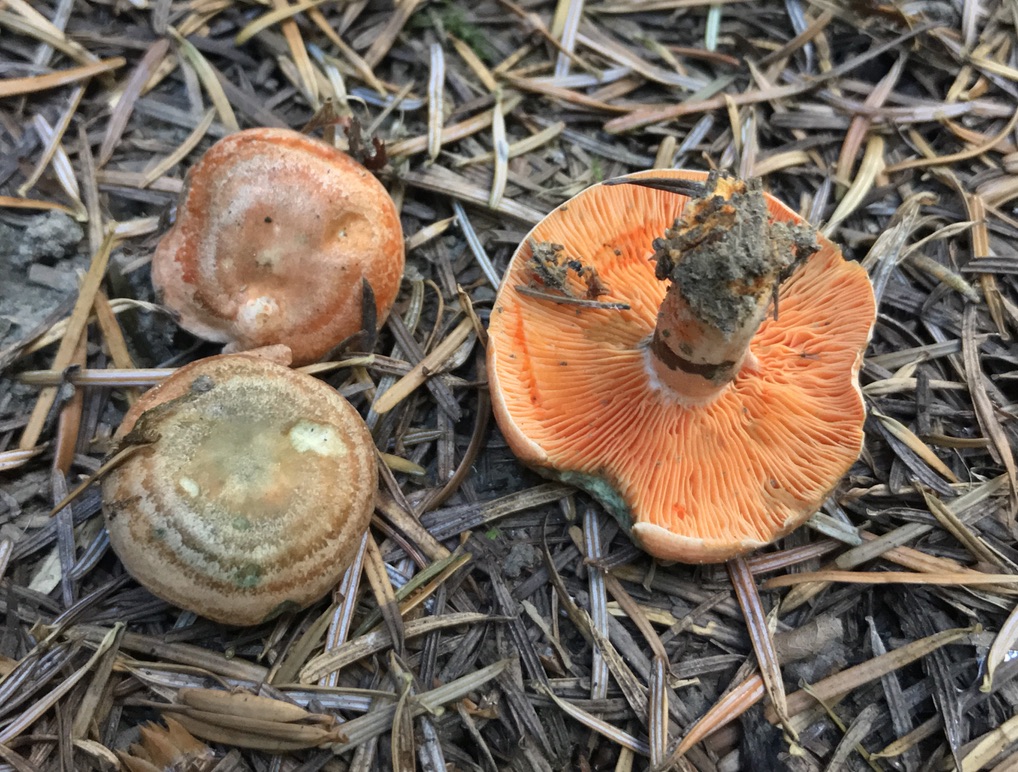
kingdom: Fungi
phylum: Basidiomycota
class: Agaricomycetes
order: Russulales
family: Russulaceae
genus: Lactarius
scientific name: Lactarius deterrimus
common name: gran-mælkehat
